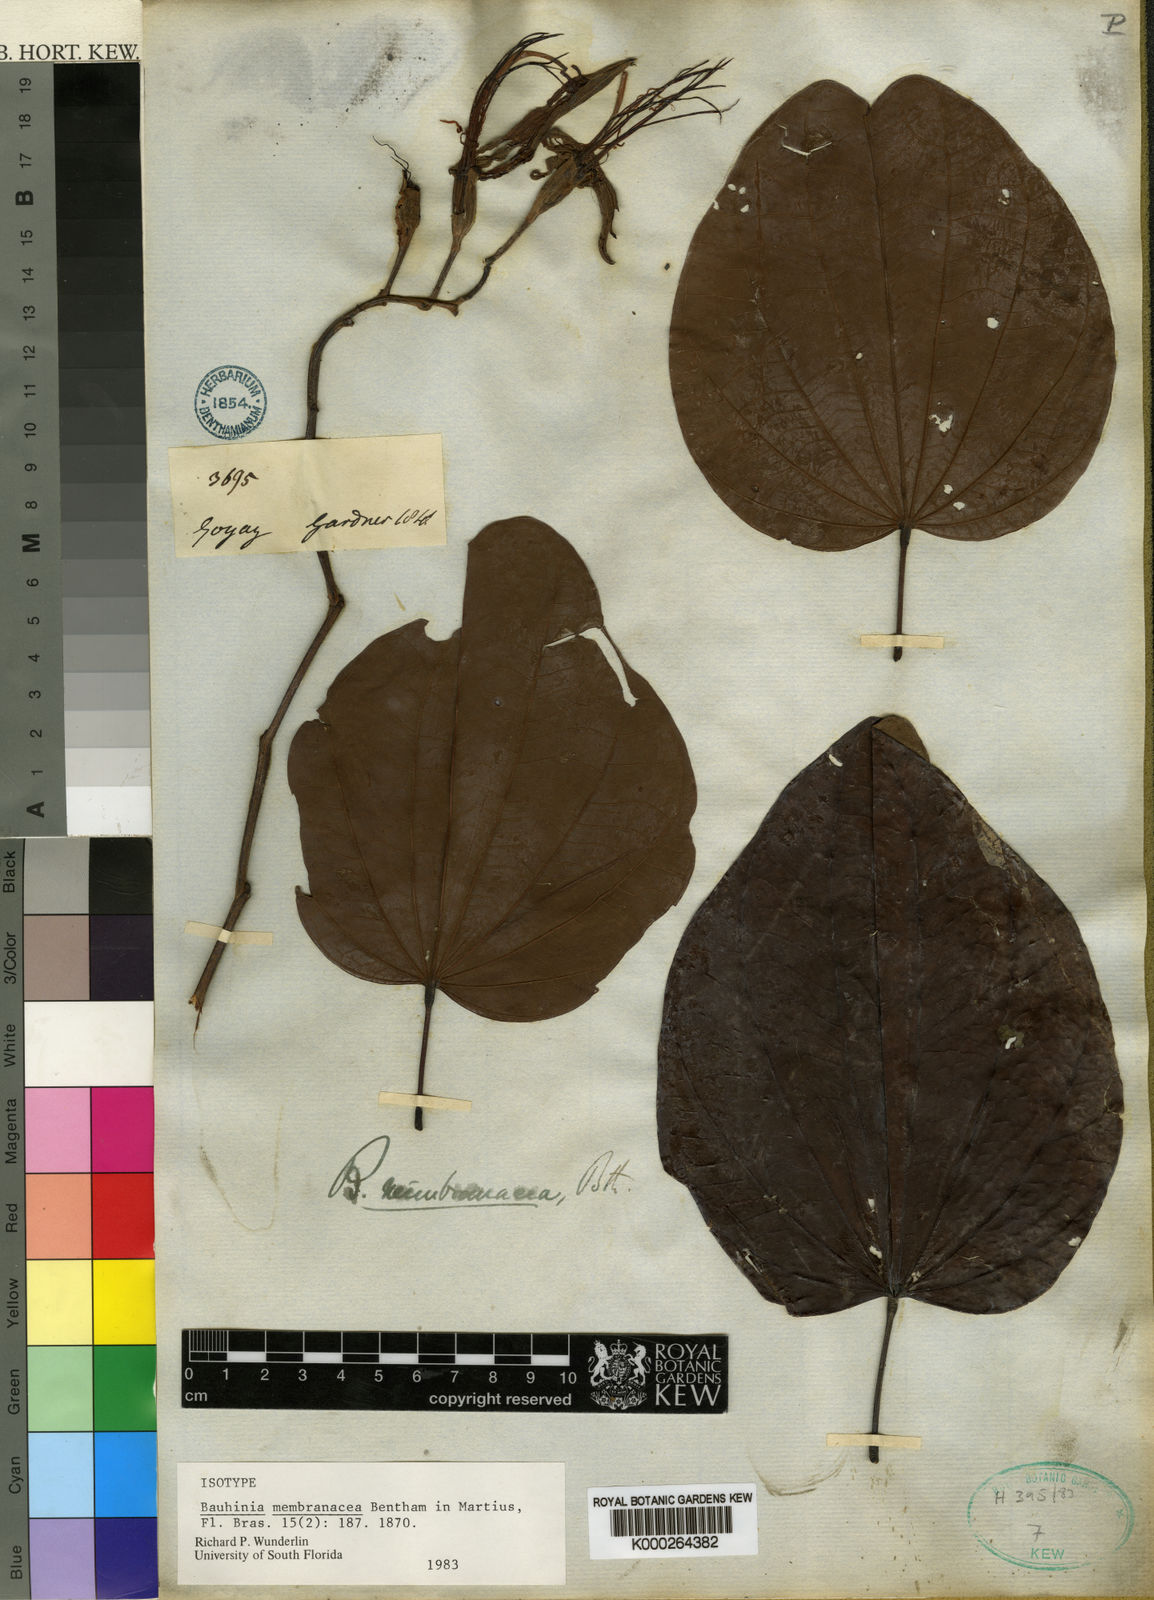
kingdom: Plantae
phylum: Tracheophyta
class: Magnoliopsida
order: Fabales
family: Fabaceae
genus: Bauhinia
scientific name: Bauhinia membranacea
